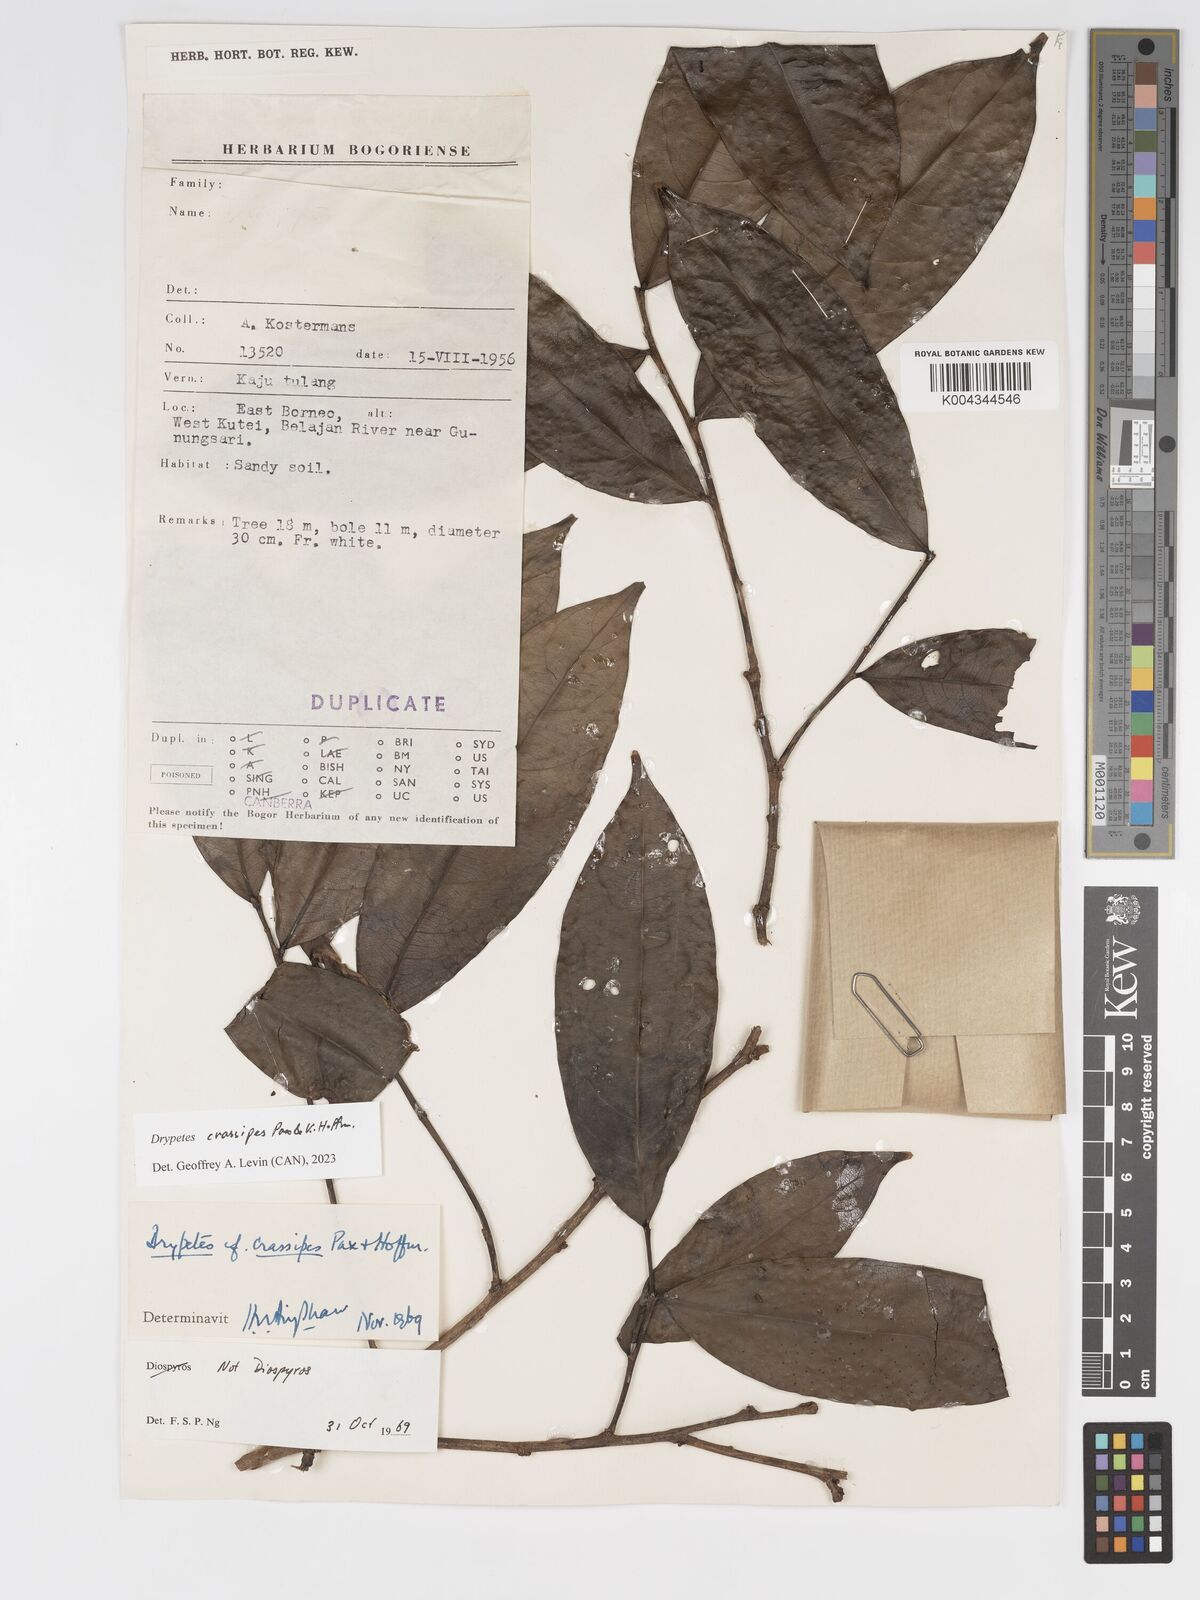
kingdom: Plantae
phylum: Tracheophyta
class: Magnoliopsida
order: Malpighiales
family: Putranjivaceae
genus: Drypetes
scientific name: Drypetes crassipes
